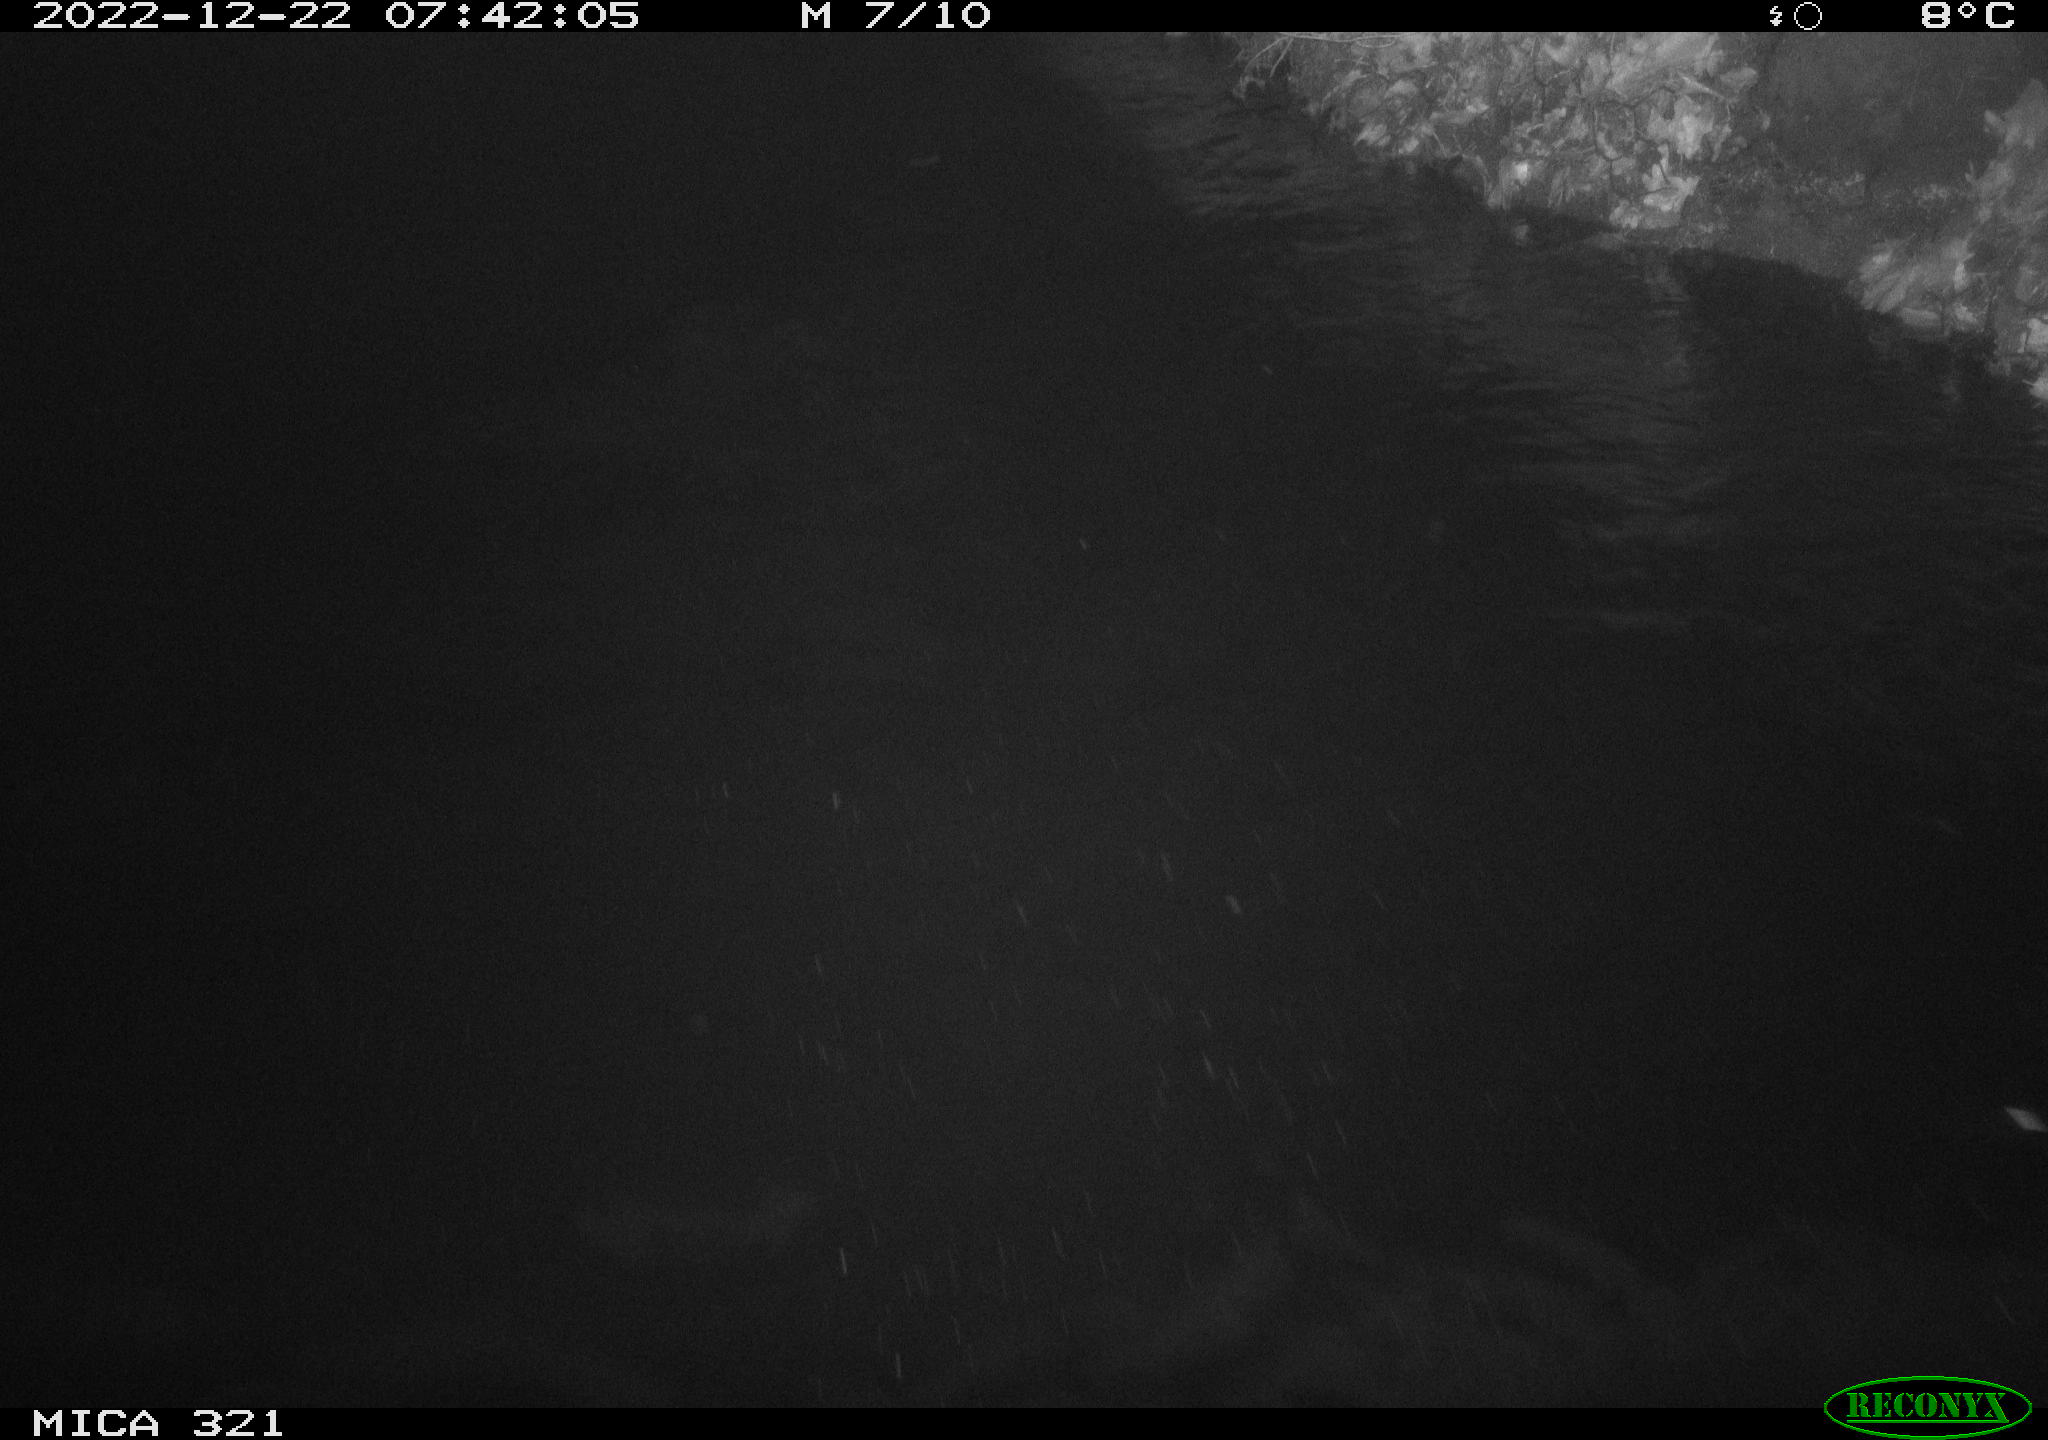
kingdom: Animalia
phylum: Chordata
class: Mammalia
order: Rodentia
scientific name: Rodentia
